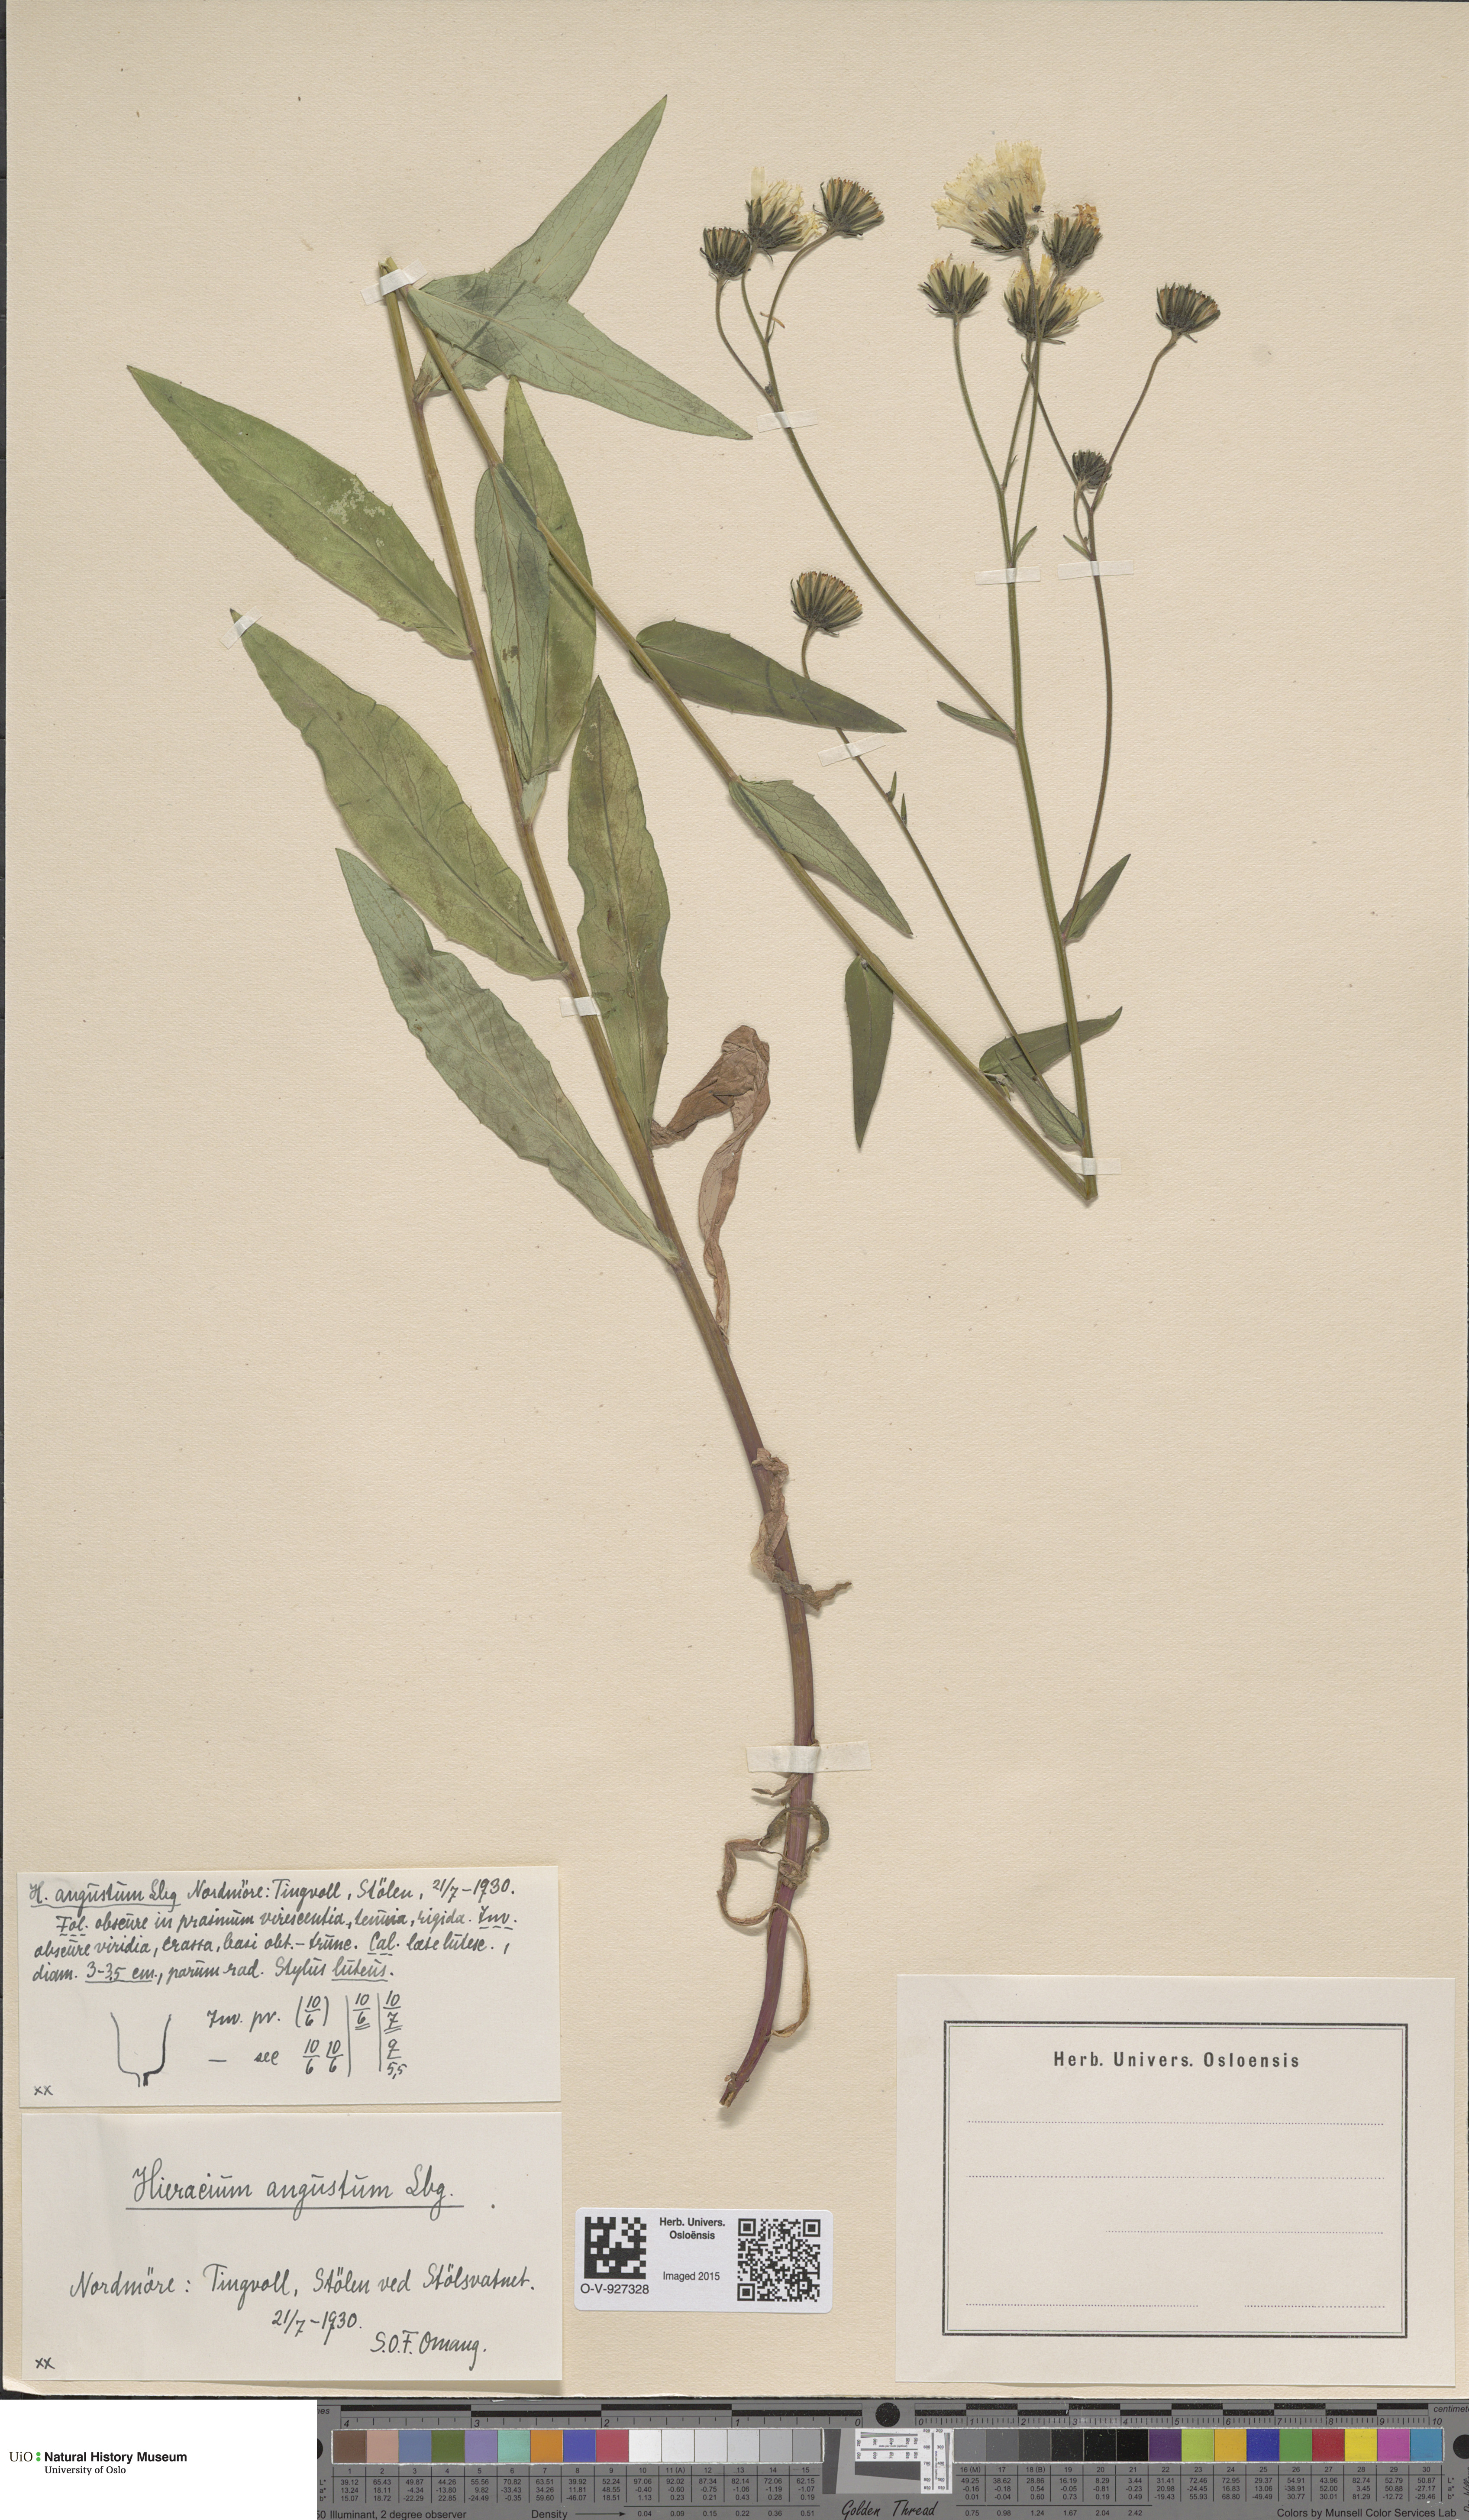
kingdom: Plantae
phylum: Tracheophyta
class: Magnoliopsida
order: Asterales
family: Asteraceae
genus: Hieracium
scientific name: Hieracium angustum
